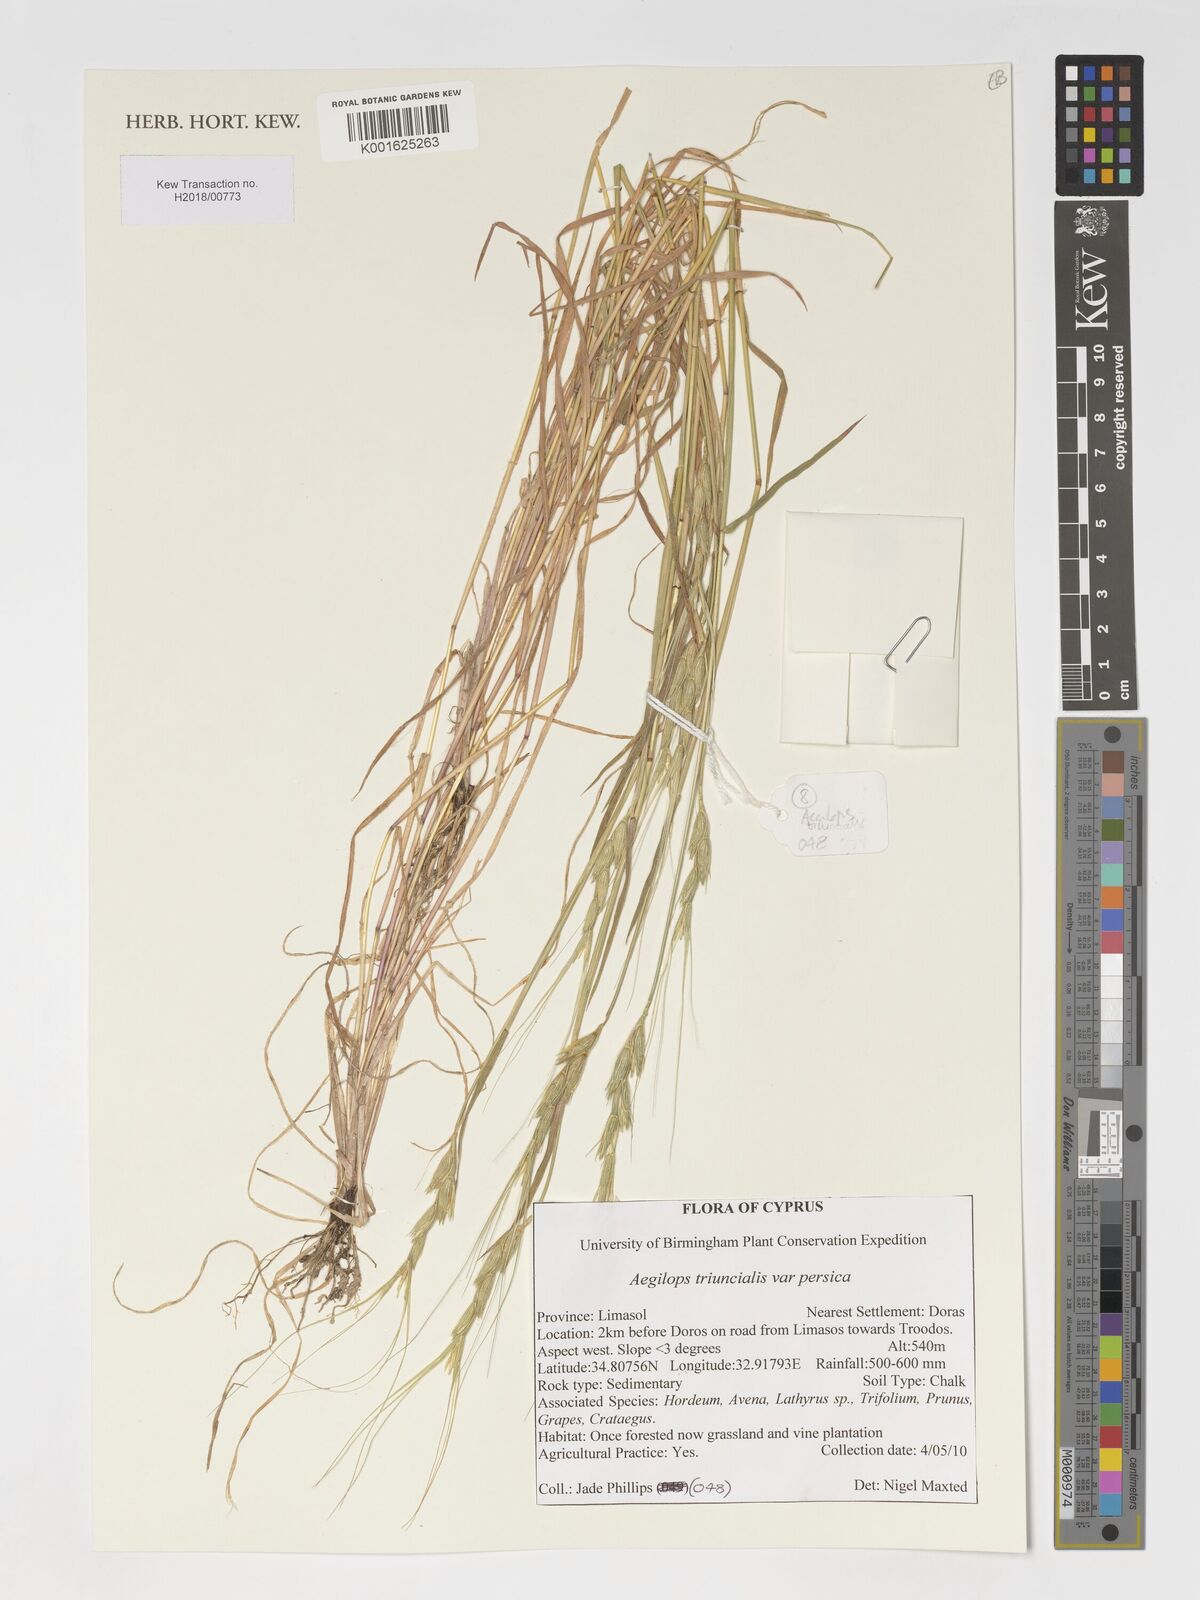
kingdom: Plantae
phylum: Tracheophyta
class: Liliopsida
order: Poales
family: Poaceae
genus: Aegilops
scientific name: Aegilops triuncialis
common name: Barb goat grass
